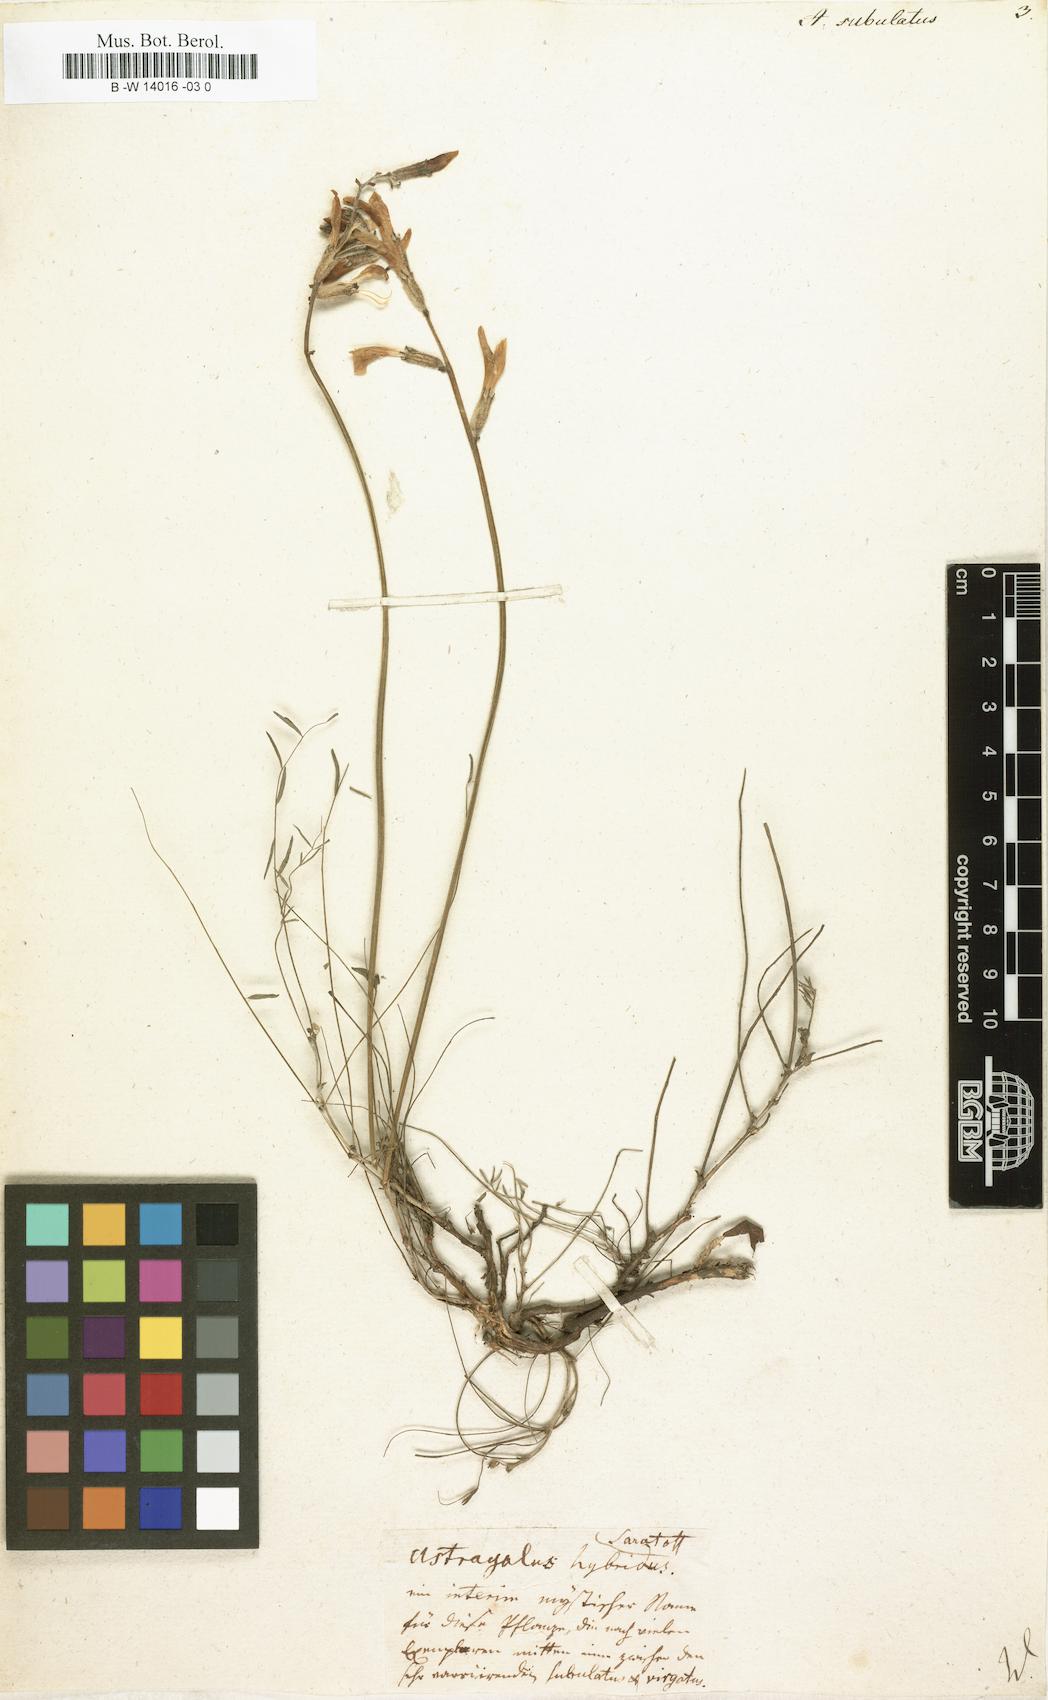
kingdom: Plantae
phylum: Tracheophyta
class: Magnoliopsida
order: Fabales
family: Fabaceae
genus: Astragalus
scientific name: Astragalus anfractuosus
